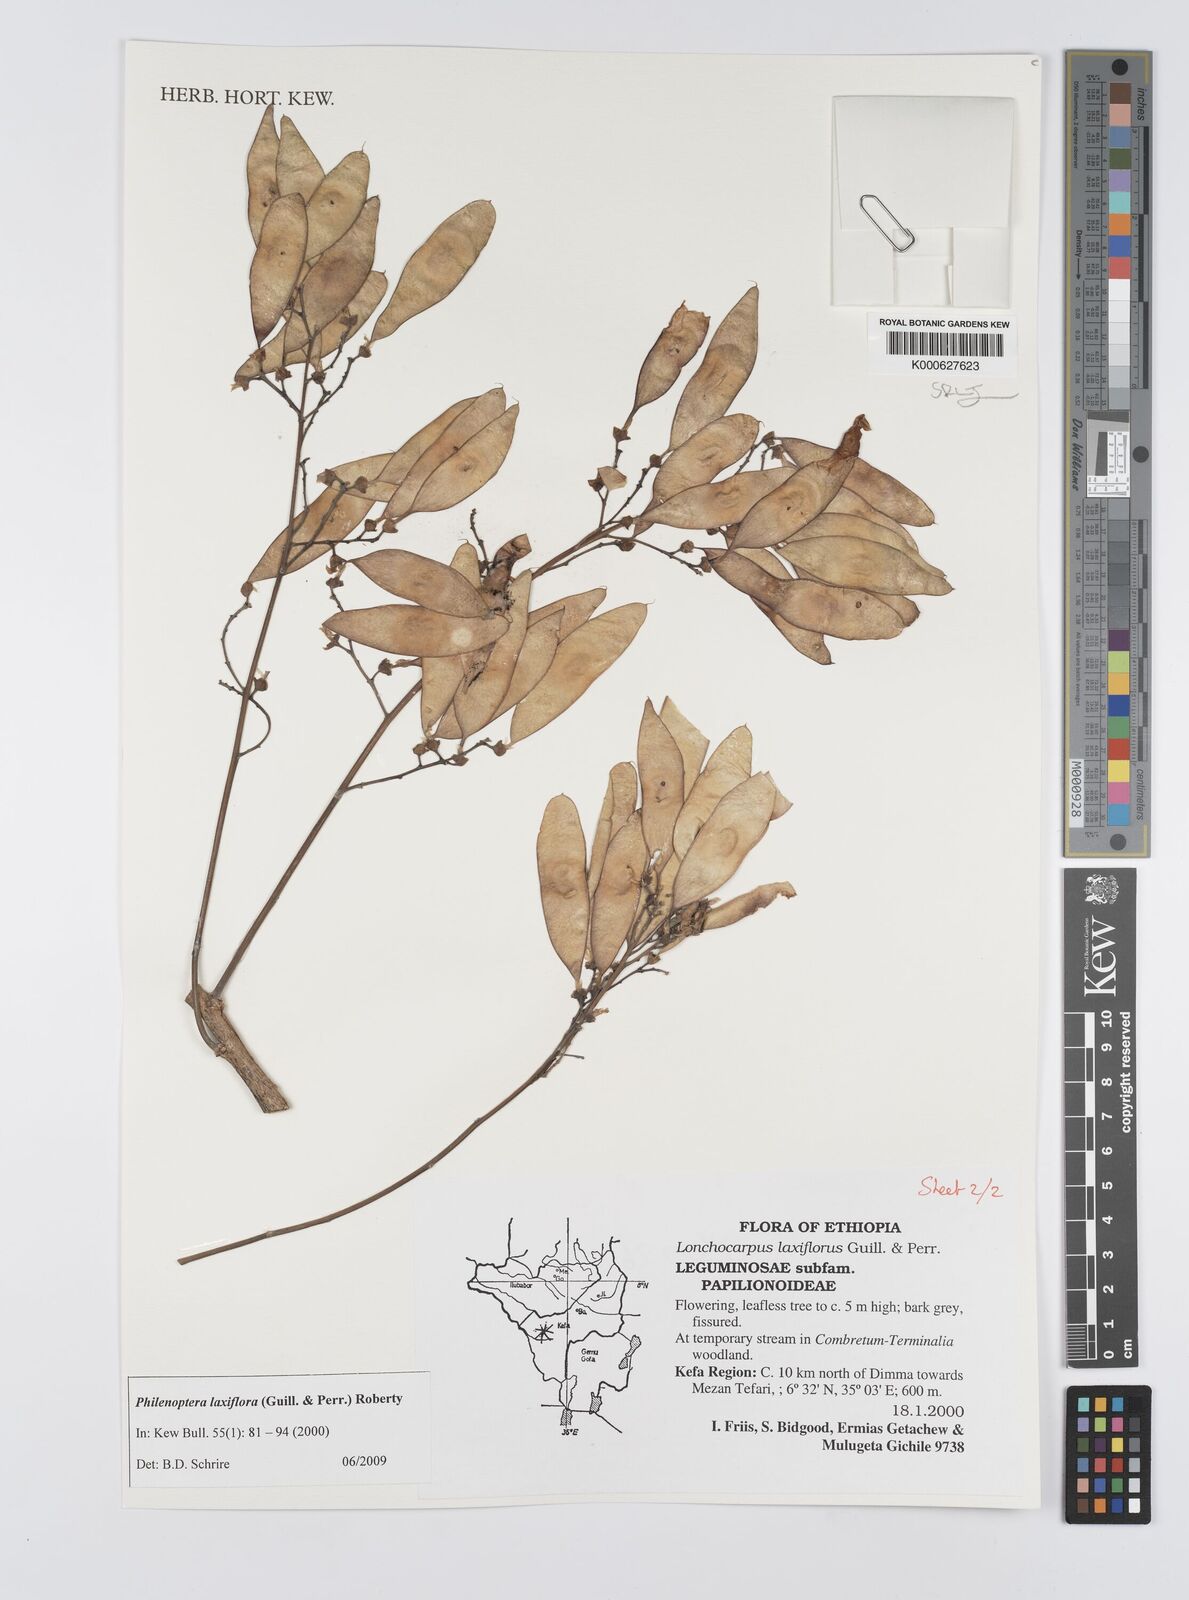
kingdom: Plantae
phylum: Tracheophyta
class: Magnoliopsida
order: Fabales
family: Fabaceae
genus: Philenoptera
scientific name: Philenoptera laxiflora
